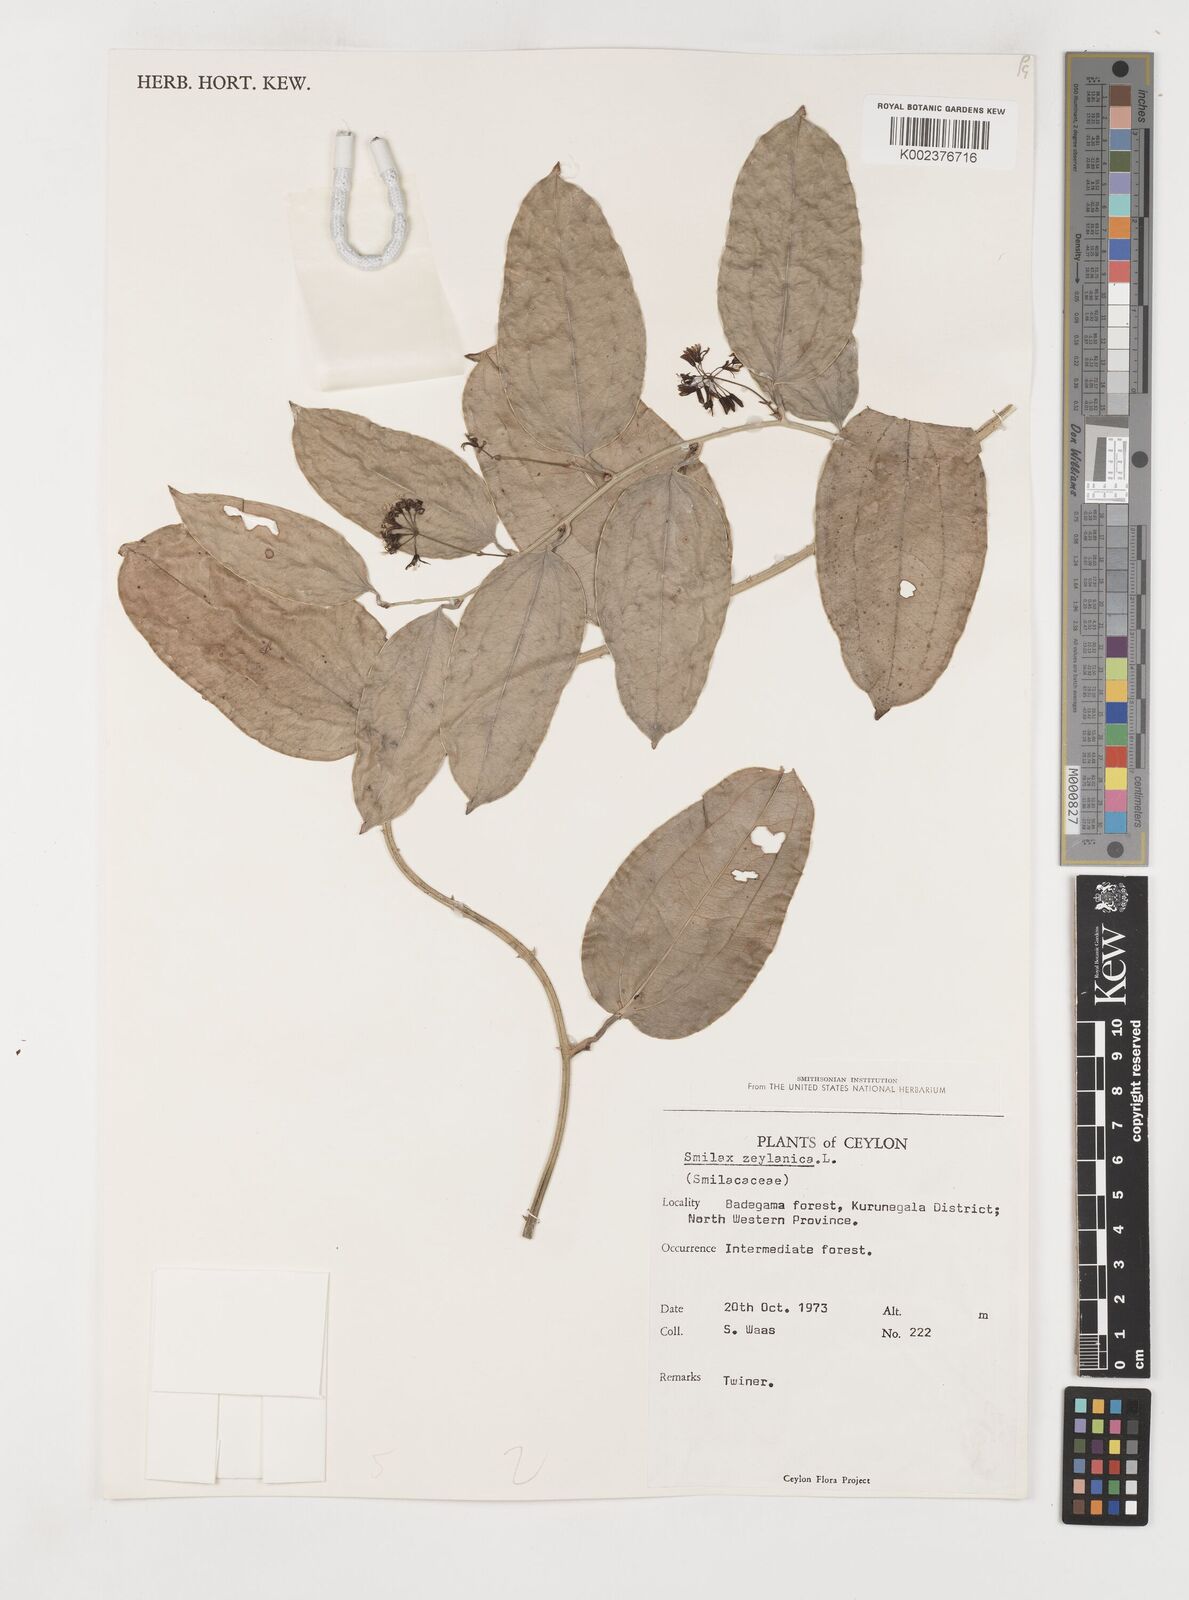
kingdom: Plantae
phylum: Tracheophyta
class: Liliopsida
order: Liliales
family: Smilacaceae
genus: Smilax
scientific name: Smilax zeylanica
